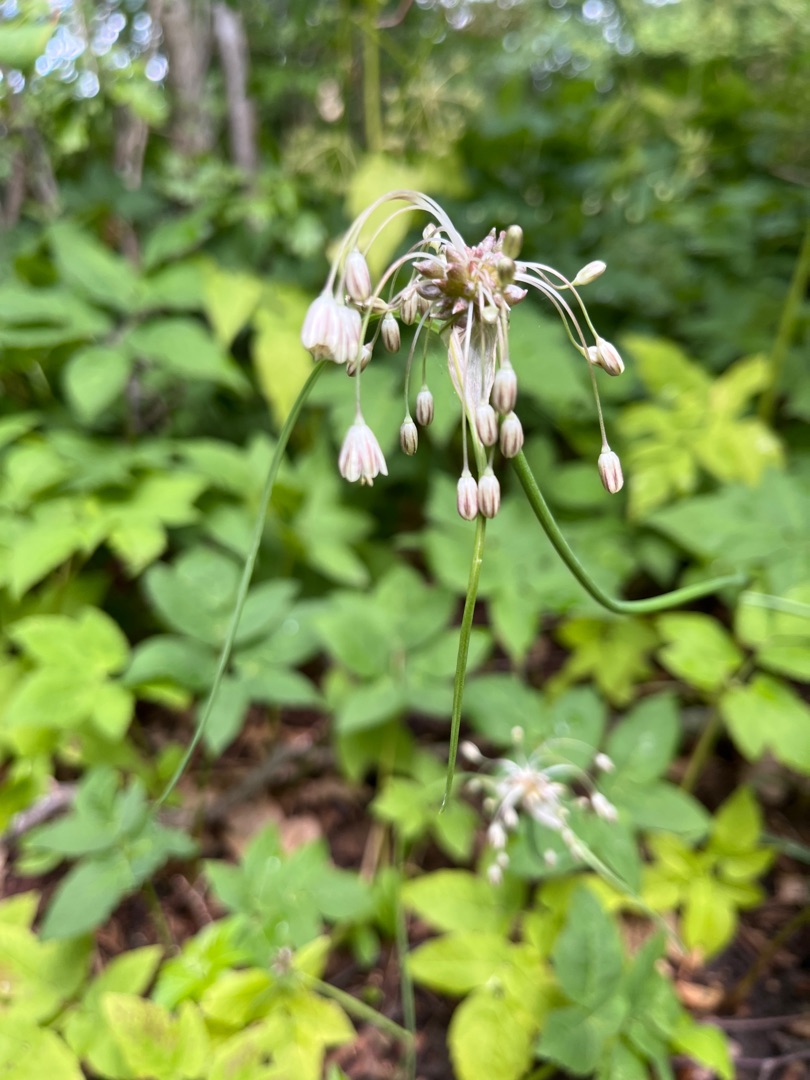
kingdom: Plantae
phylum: Tracheophyta
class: Liliopsida
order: Asparagales
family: Amaryllidaceae
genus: Allium
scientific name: Allium oleraceum
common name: Vild løg
